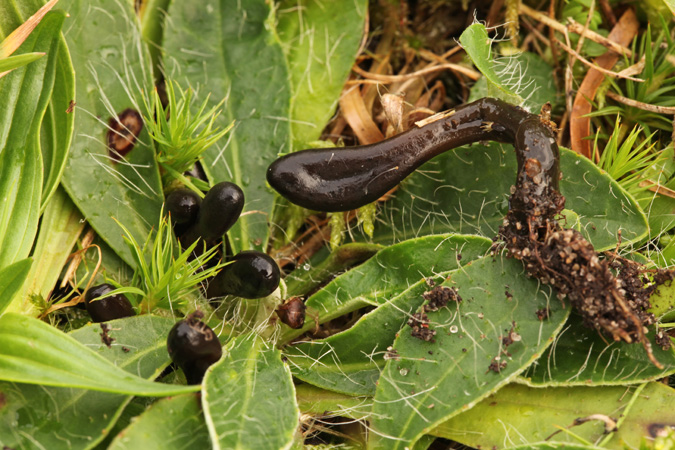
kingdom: Fungi
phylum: Ascomycota
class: Geoglossomycetes
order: Geoglossales
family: Geoglossaceae
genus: Glutinoglossum
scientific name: Glutinoglossum glutinosum
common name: slimet jordtunge
